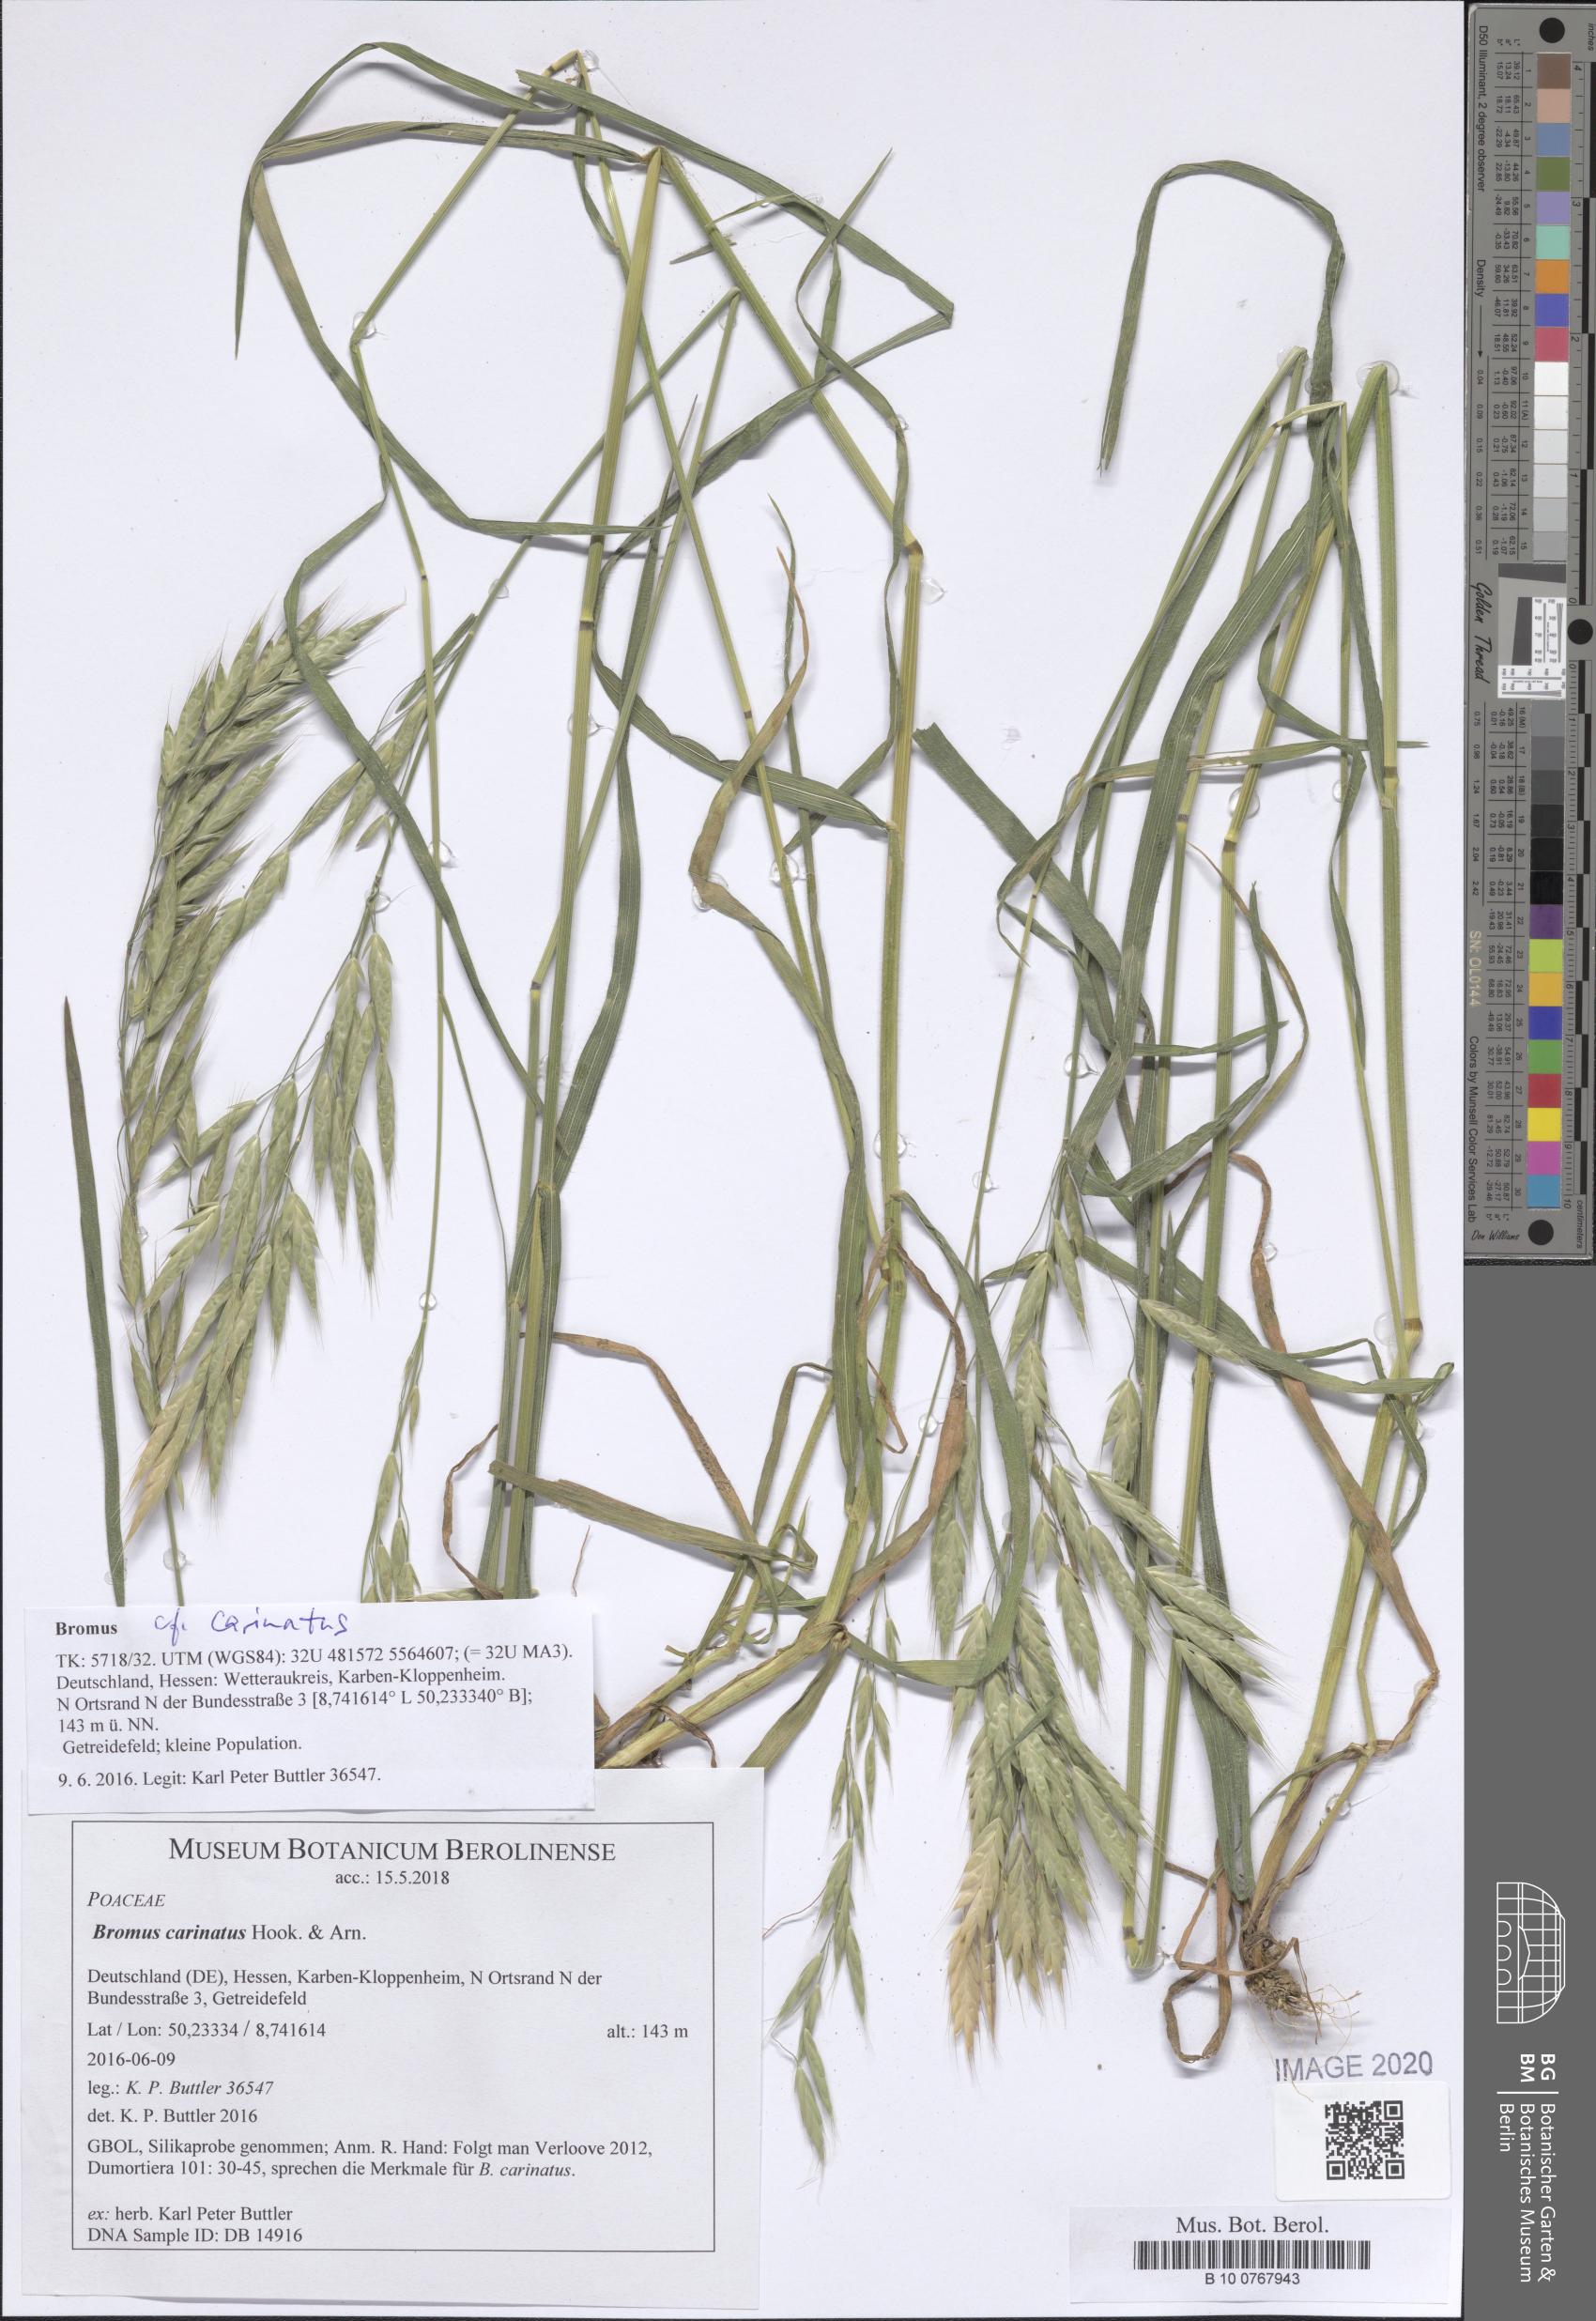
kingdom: Plantae
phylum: Tracheophyta
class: Liliopsida
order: Poales
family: Poaceae
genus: Bromus
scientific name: Bromus carinatus
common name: Mountain brome
